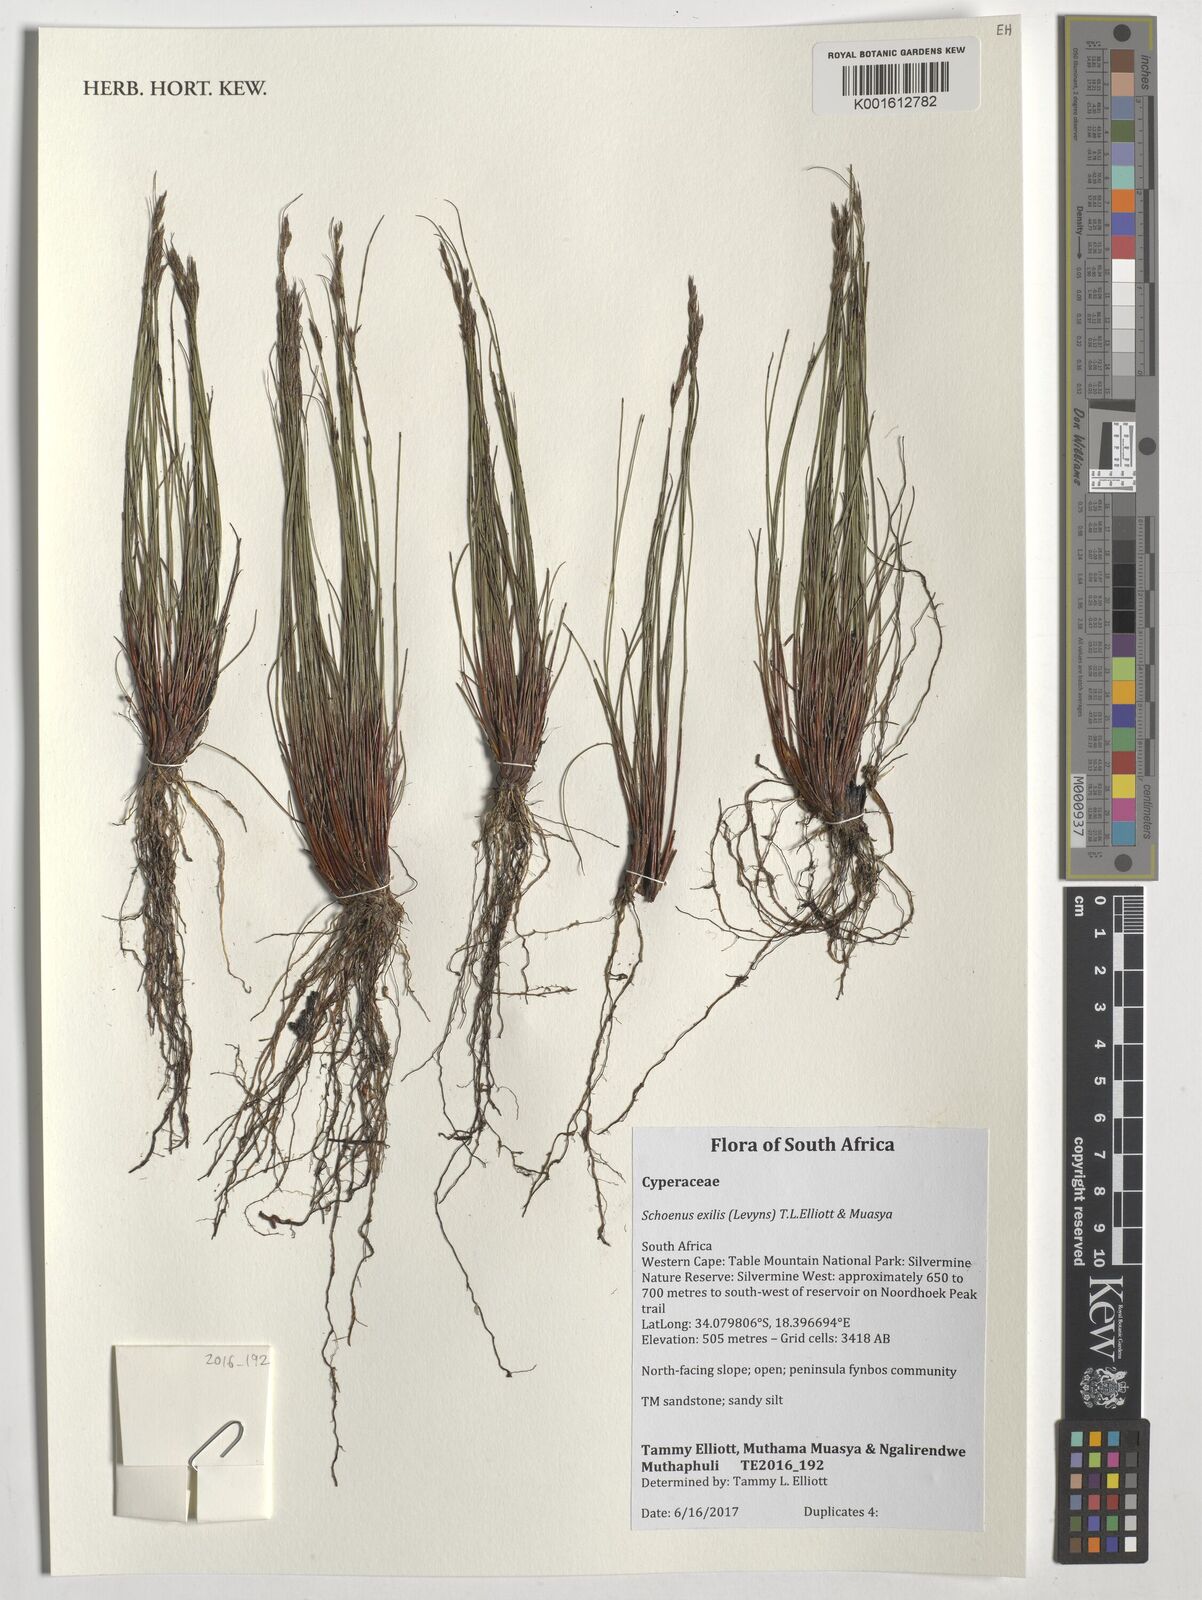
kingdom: Plantae
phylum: Tracheophyta
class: Liliopsida
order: Poales
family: Cyperaceae
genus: Schoenus
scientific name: Schoenus exilis
